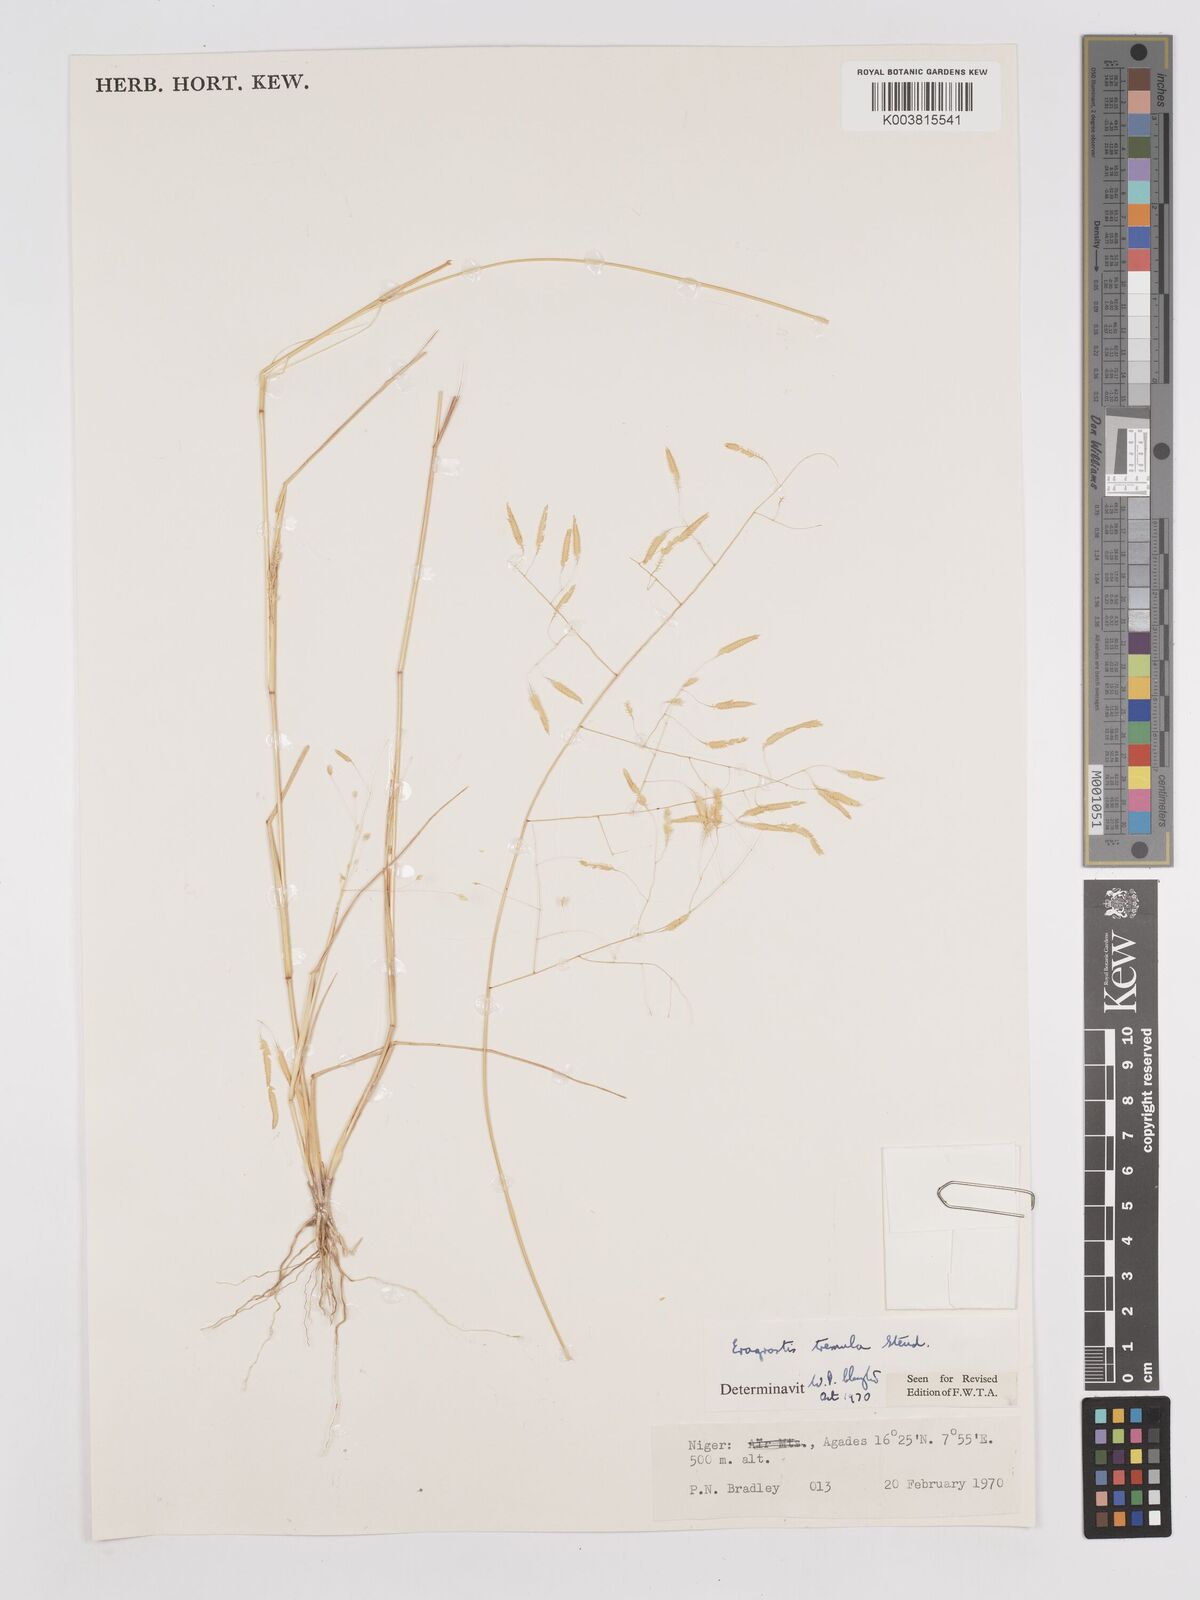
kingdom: Plantae
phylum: Tracheophyta
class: Liliopsida
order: Poales
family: Poaceae
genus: Eragrostis
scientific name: Eragrostis tremula
